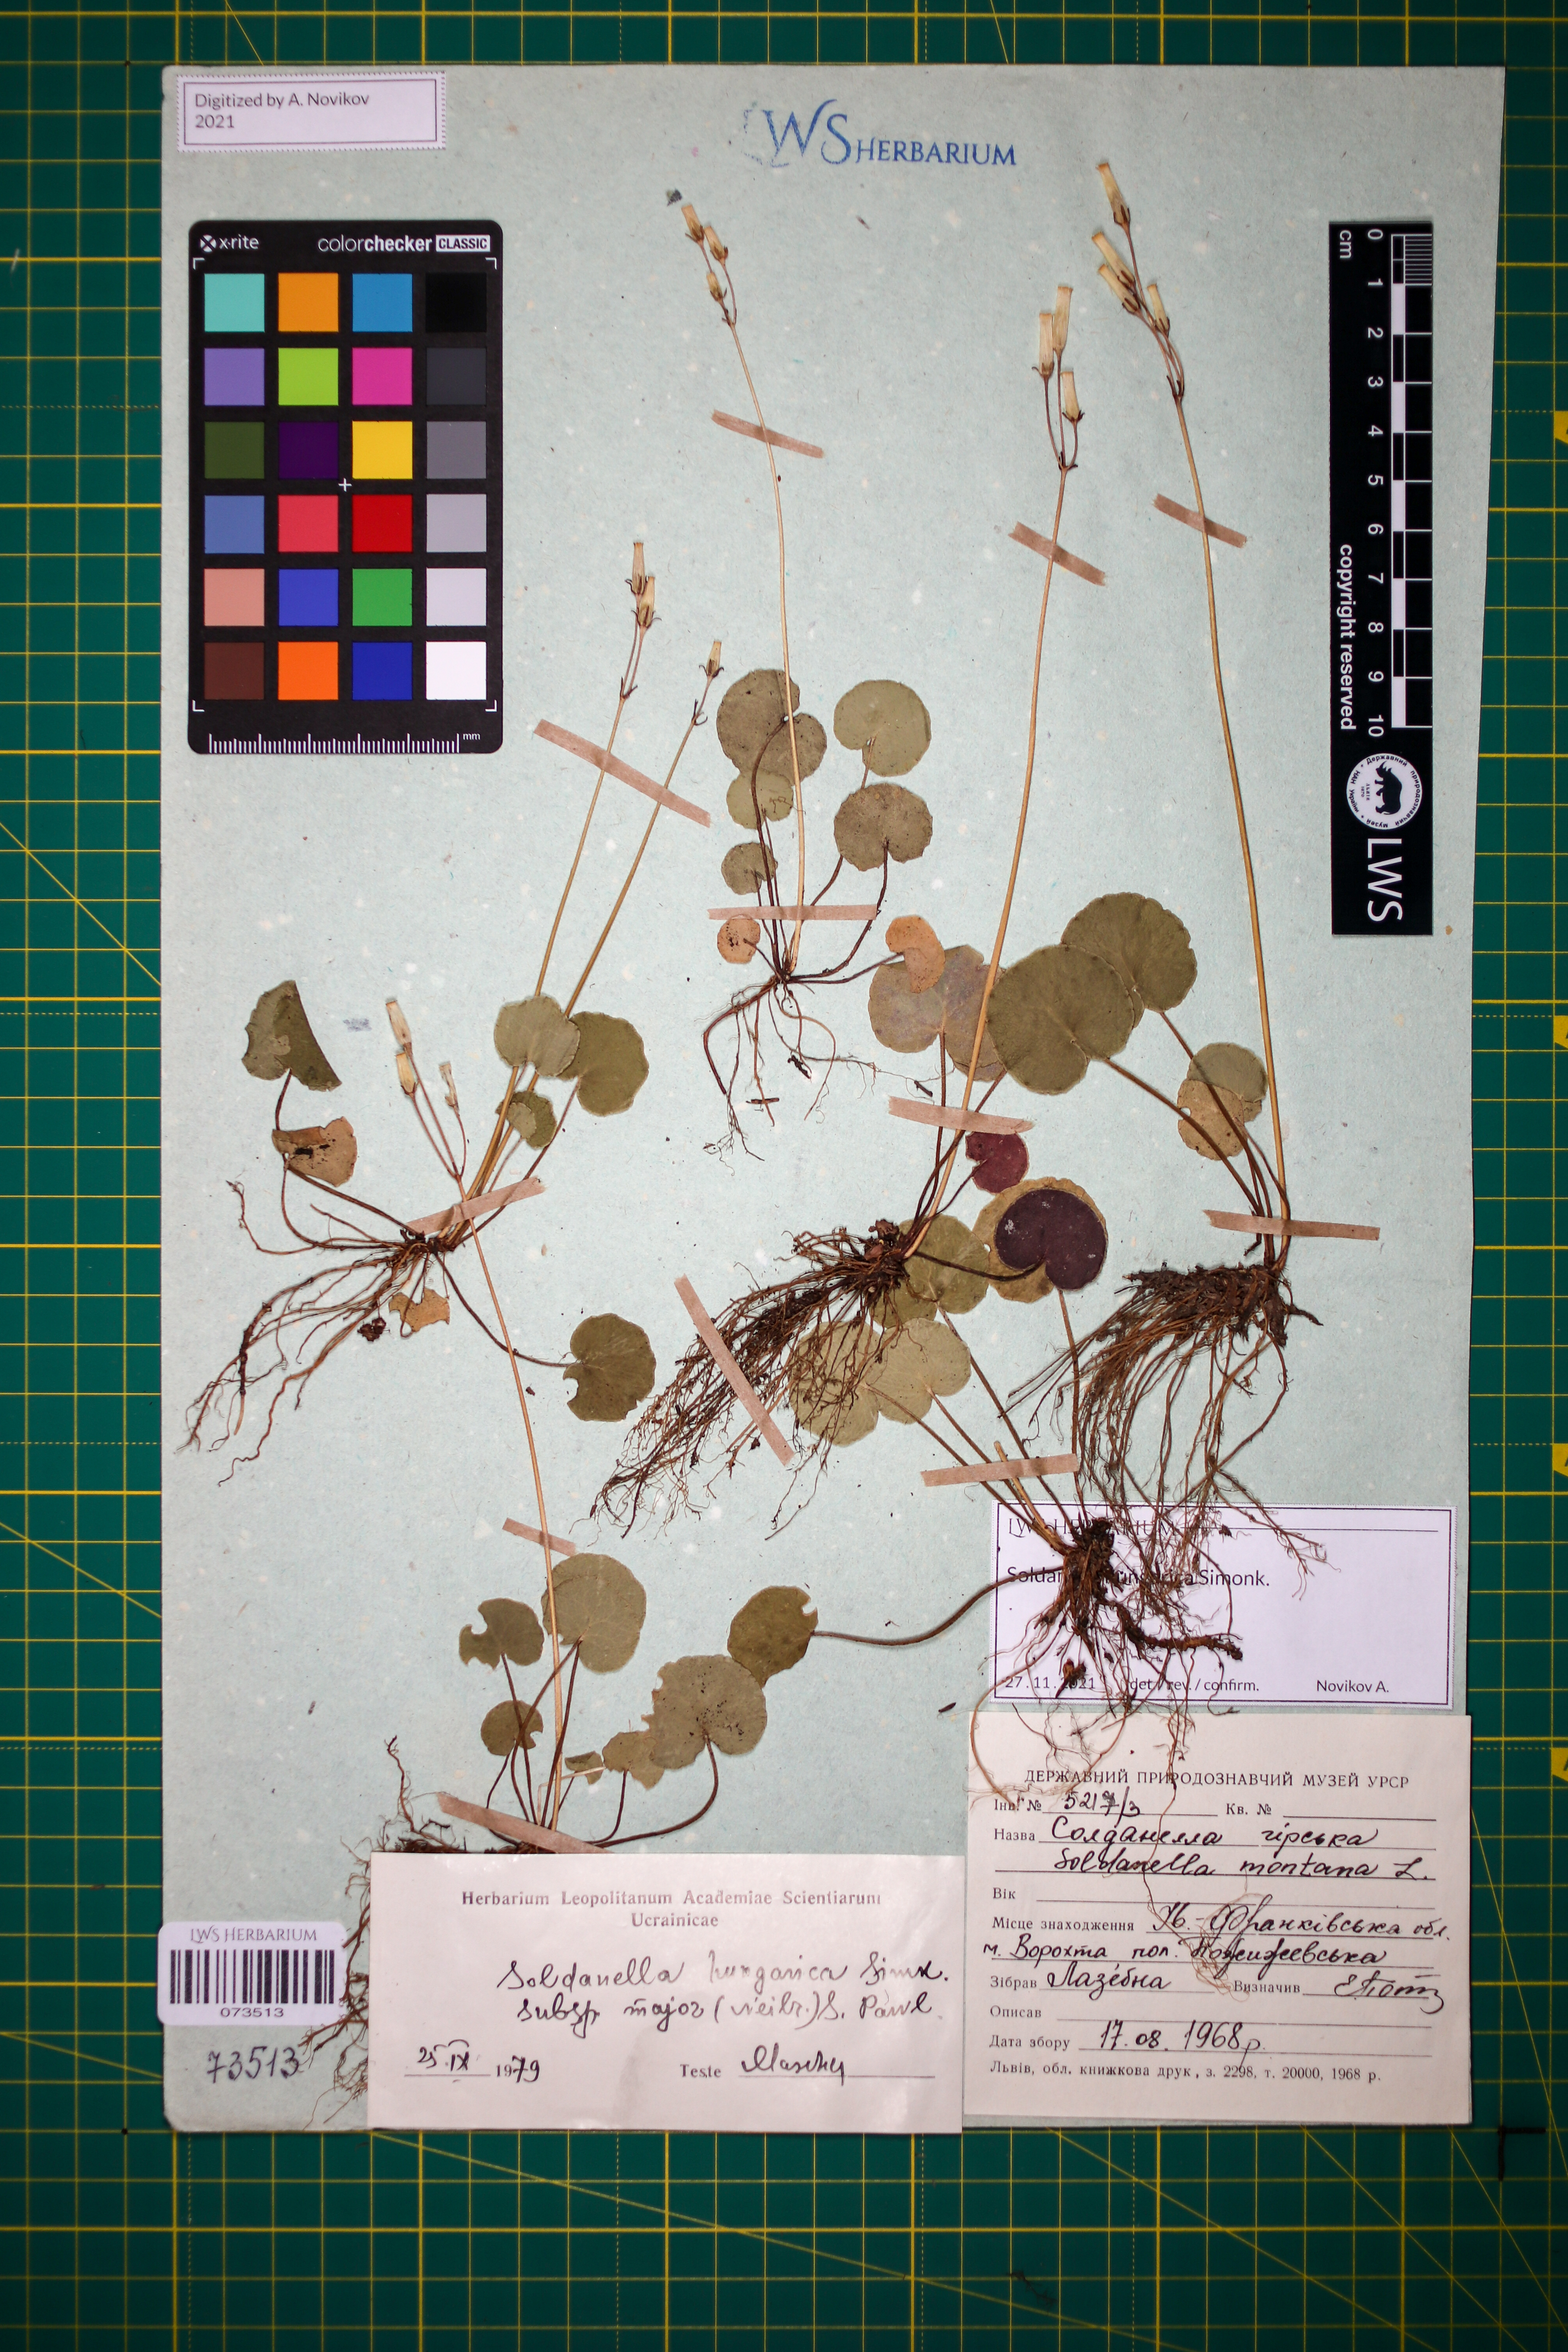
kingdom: Plantae
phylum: Tracheophyta
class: Magnoliopsida
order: Ericales
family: Primulaceae
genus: Soldanella
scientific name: Soldanella hungarica
